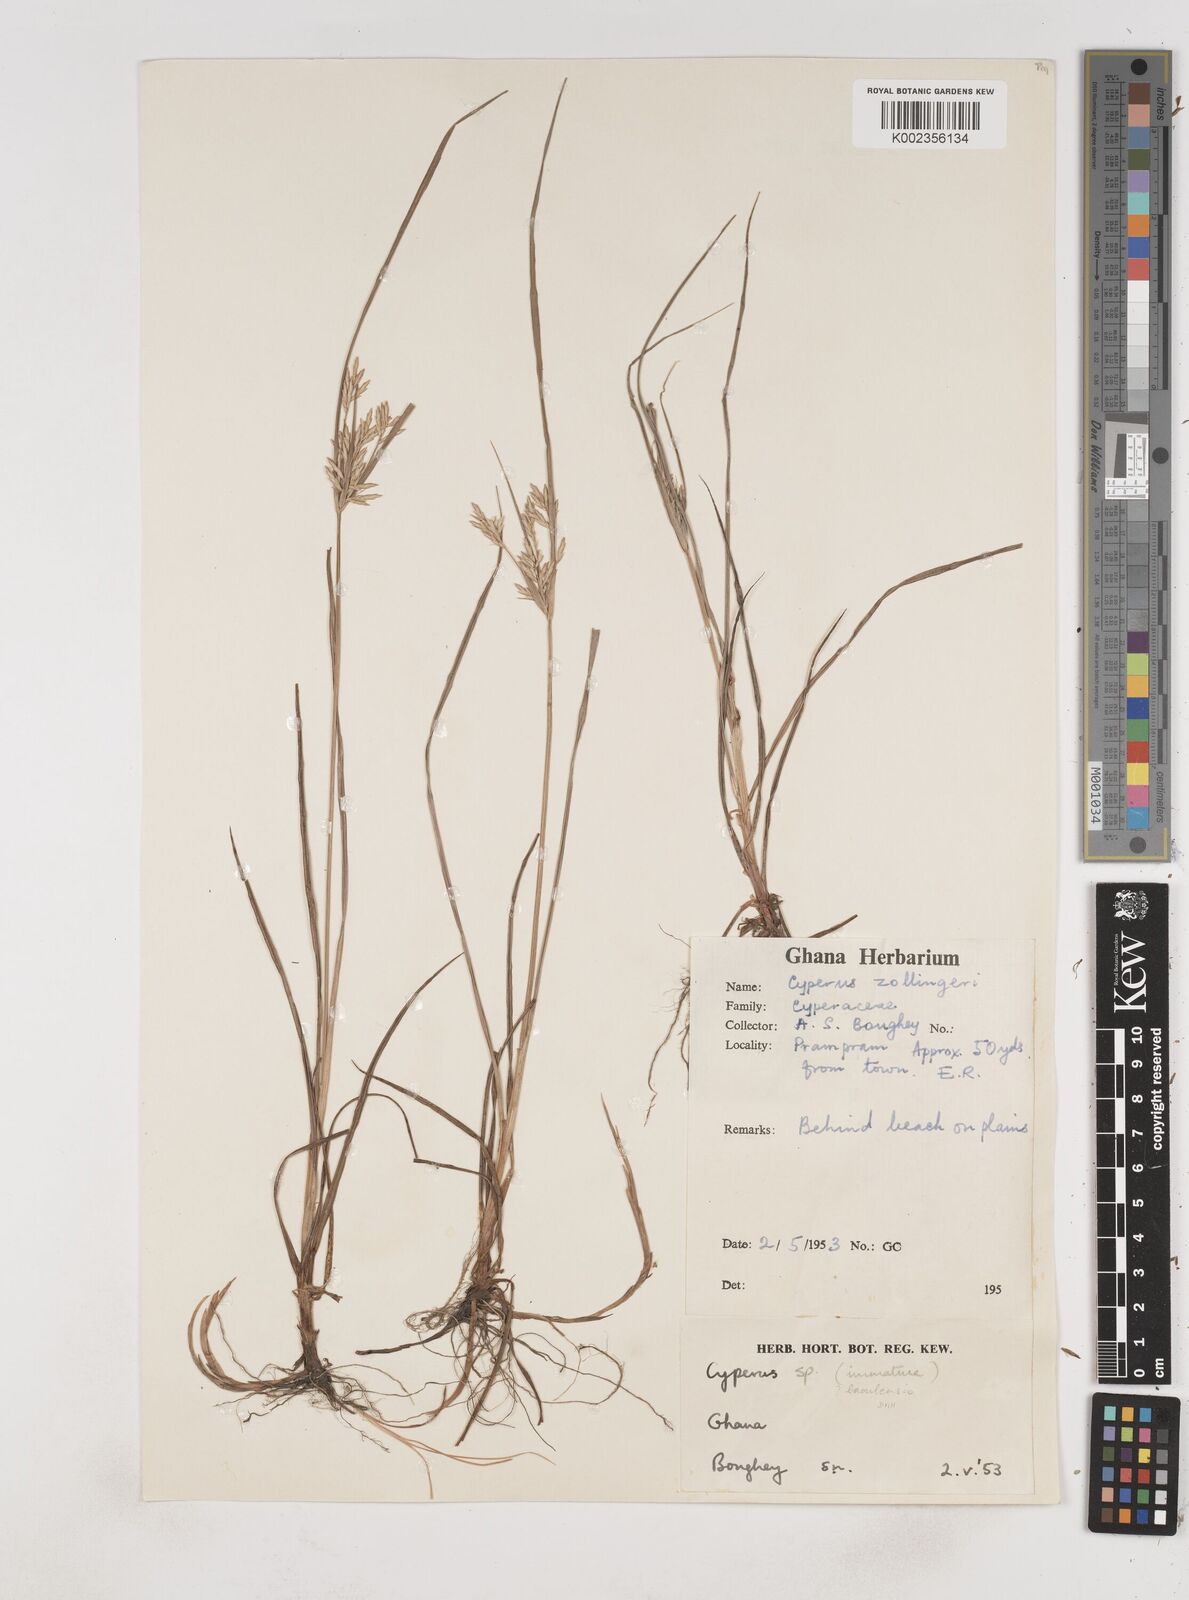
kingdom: Plantae
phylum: Tracheophyta
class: Liliopsida
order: Poales
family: Cyperaceae
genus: Cyperus
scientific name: Cyperus baoulensis
